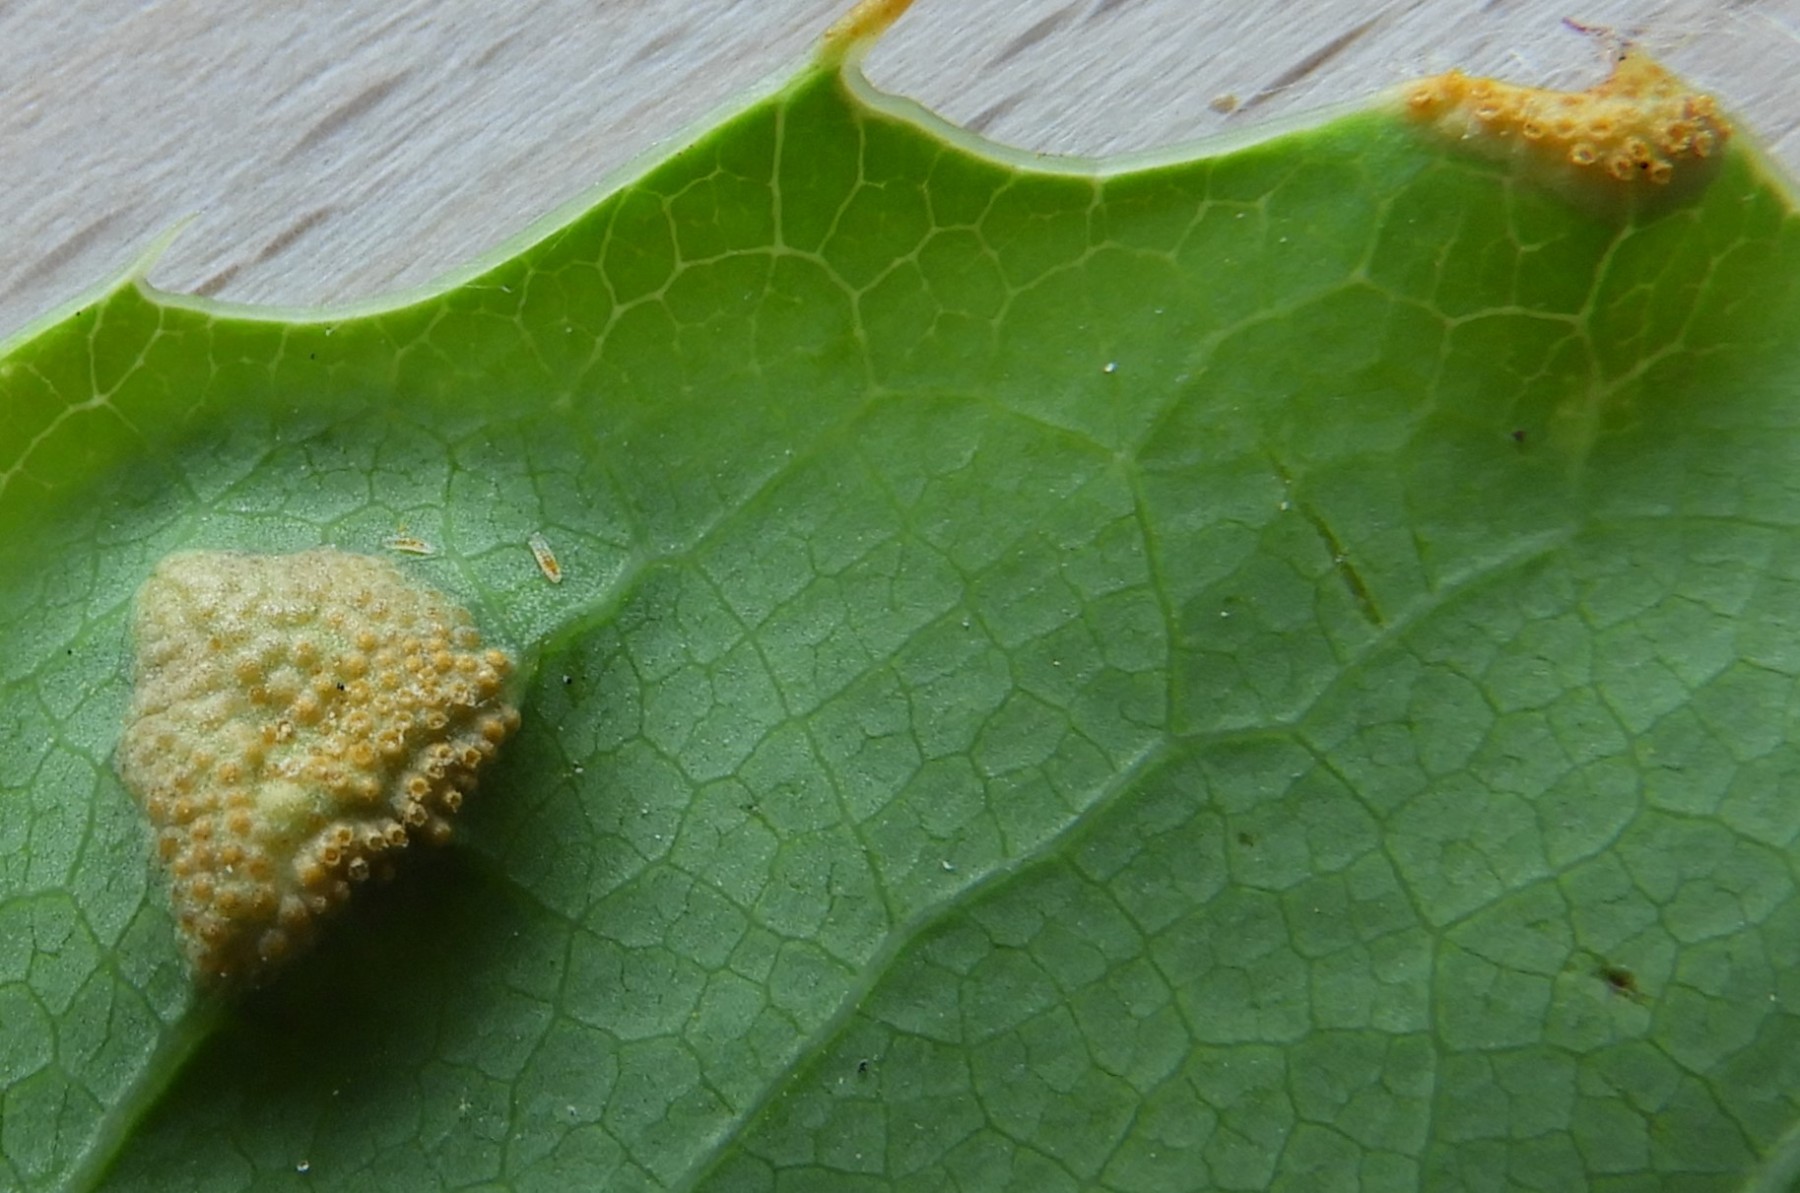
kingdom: Fungi
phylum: Basidiomycota
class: Pucciniomycetes
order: Pucciniales
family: Pucciniaceae
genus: Puccinia
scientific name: Puccinia graminis
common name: græssernes tvecellerust
